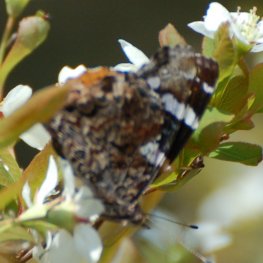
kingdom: Animalia
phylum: Arthropoda
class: Insecta
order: Lepidoptera
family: Nymphalidae
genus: Vanessa
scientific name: Vanessa atalanta
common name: Red Admiral
